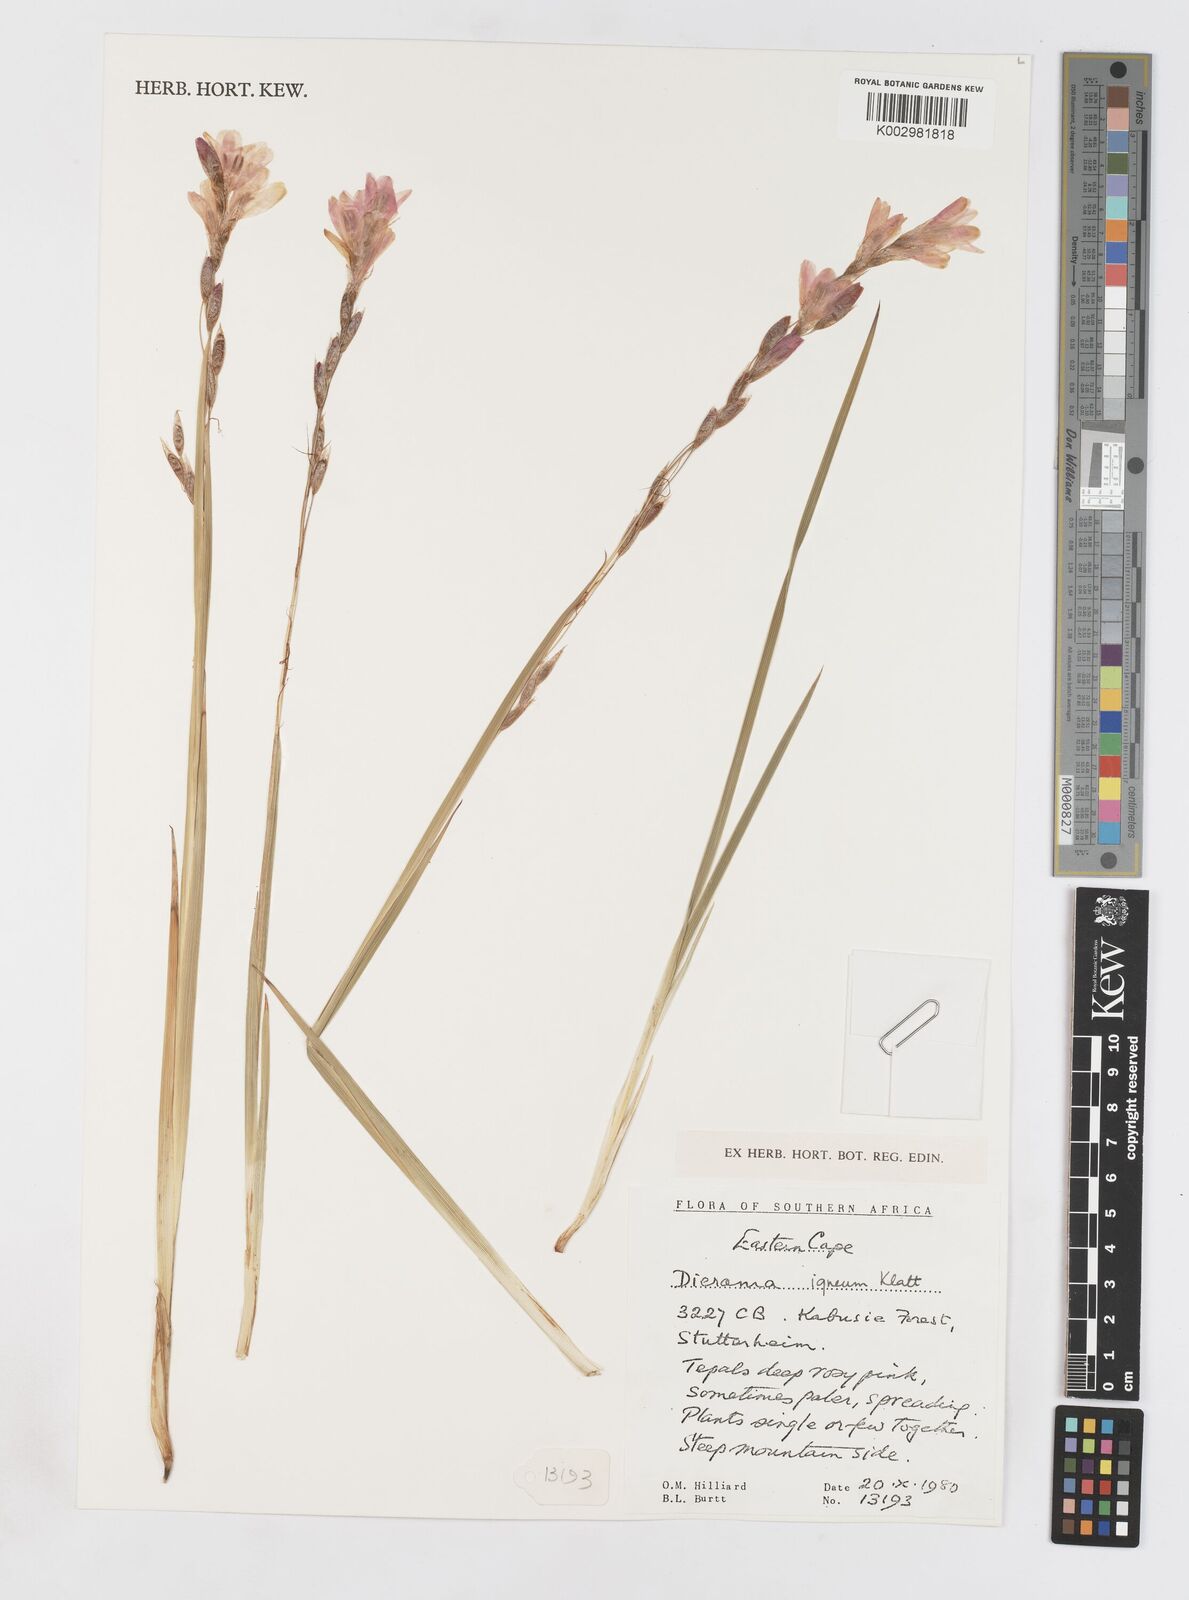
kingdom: Plantae
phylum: Tracheophyta
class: Liliopsida
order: Asparagales
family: Iridaceae
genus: Dierama
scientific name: Dierama igneum
